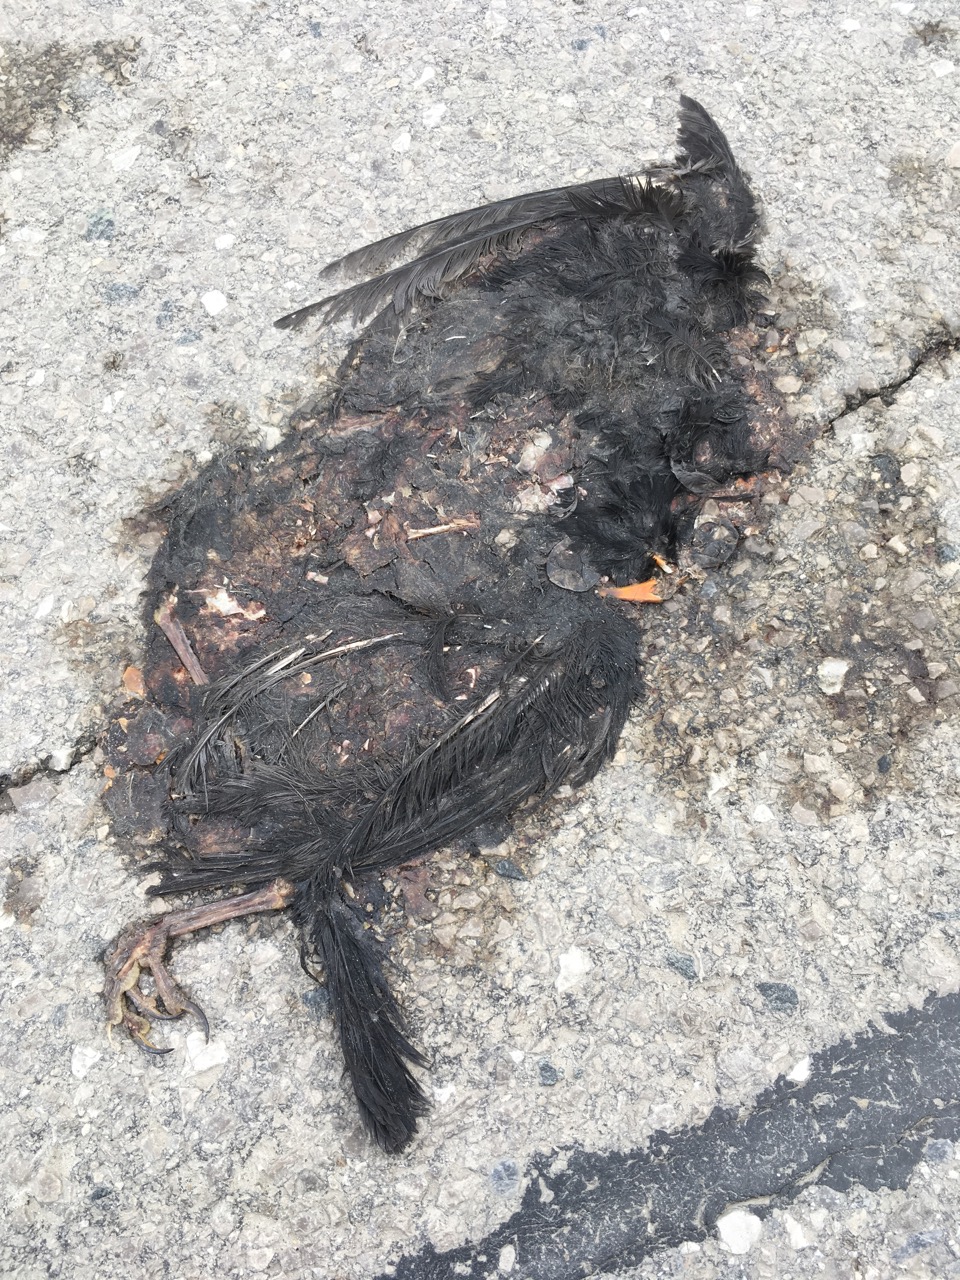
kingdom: Animalia
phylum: Chordata
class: Aves
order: Passeriformes
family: Turdidae
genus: Turdus
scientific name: Turdus merula
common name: Common blackbird
